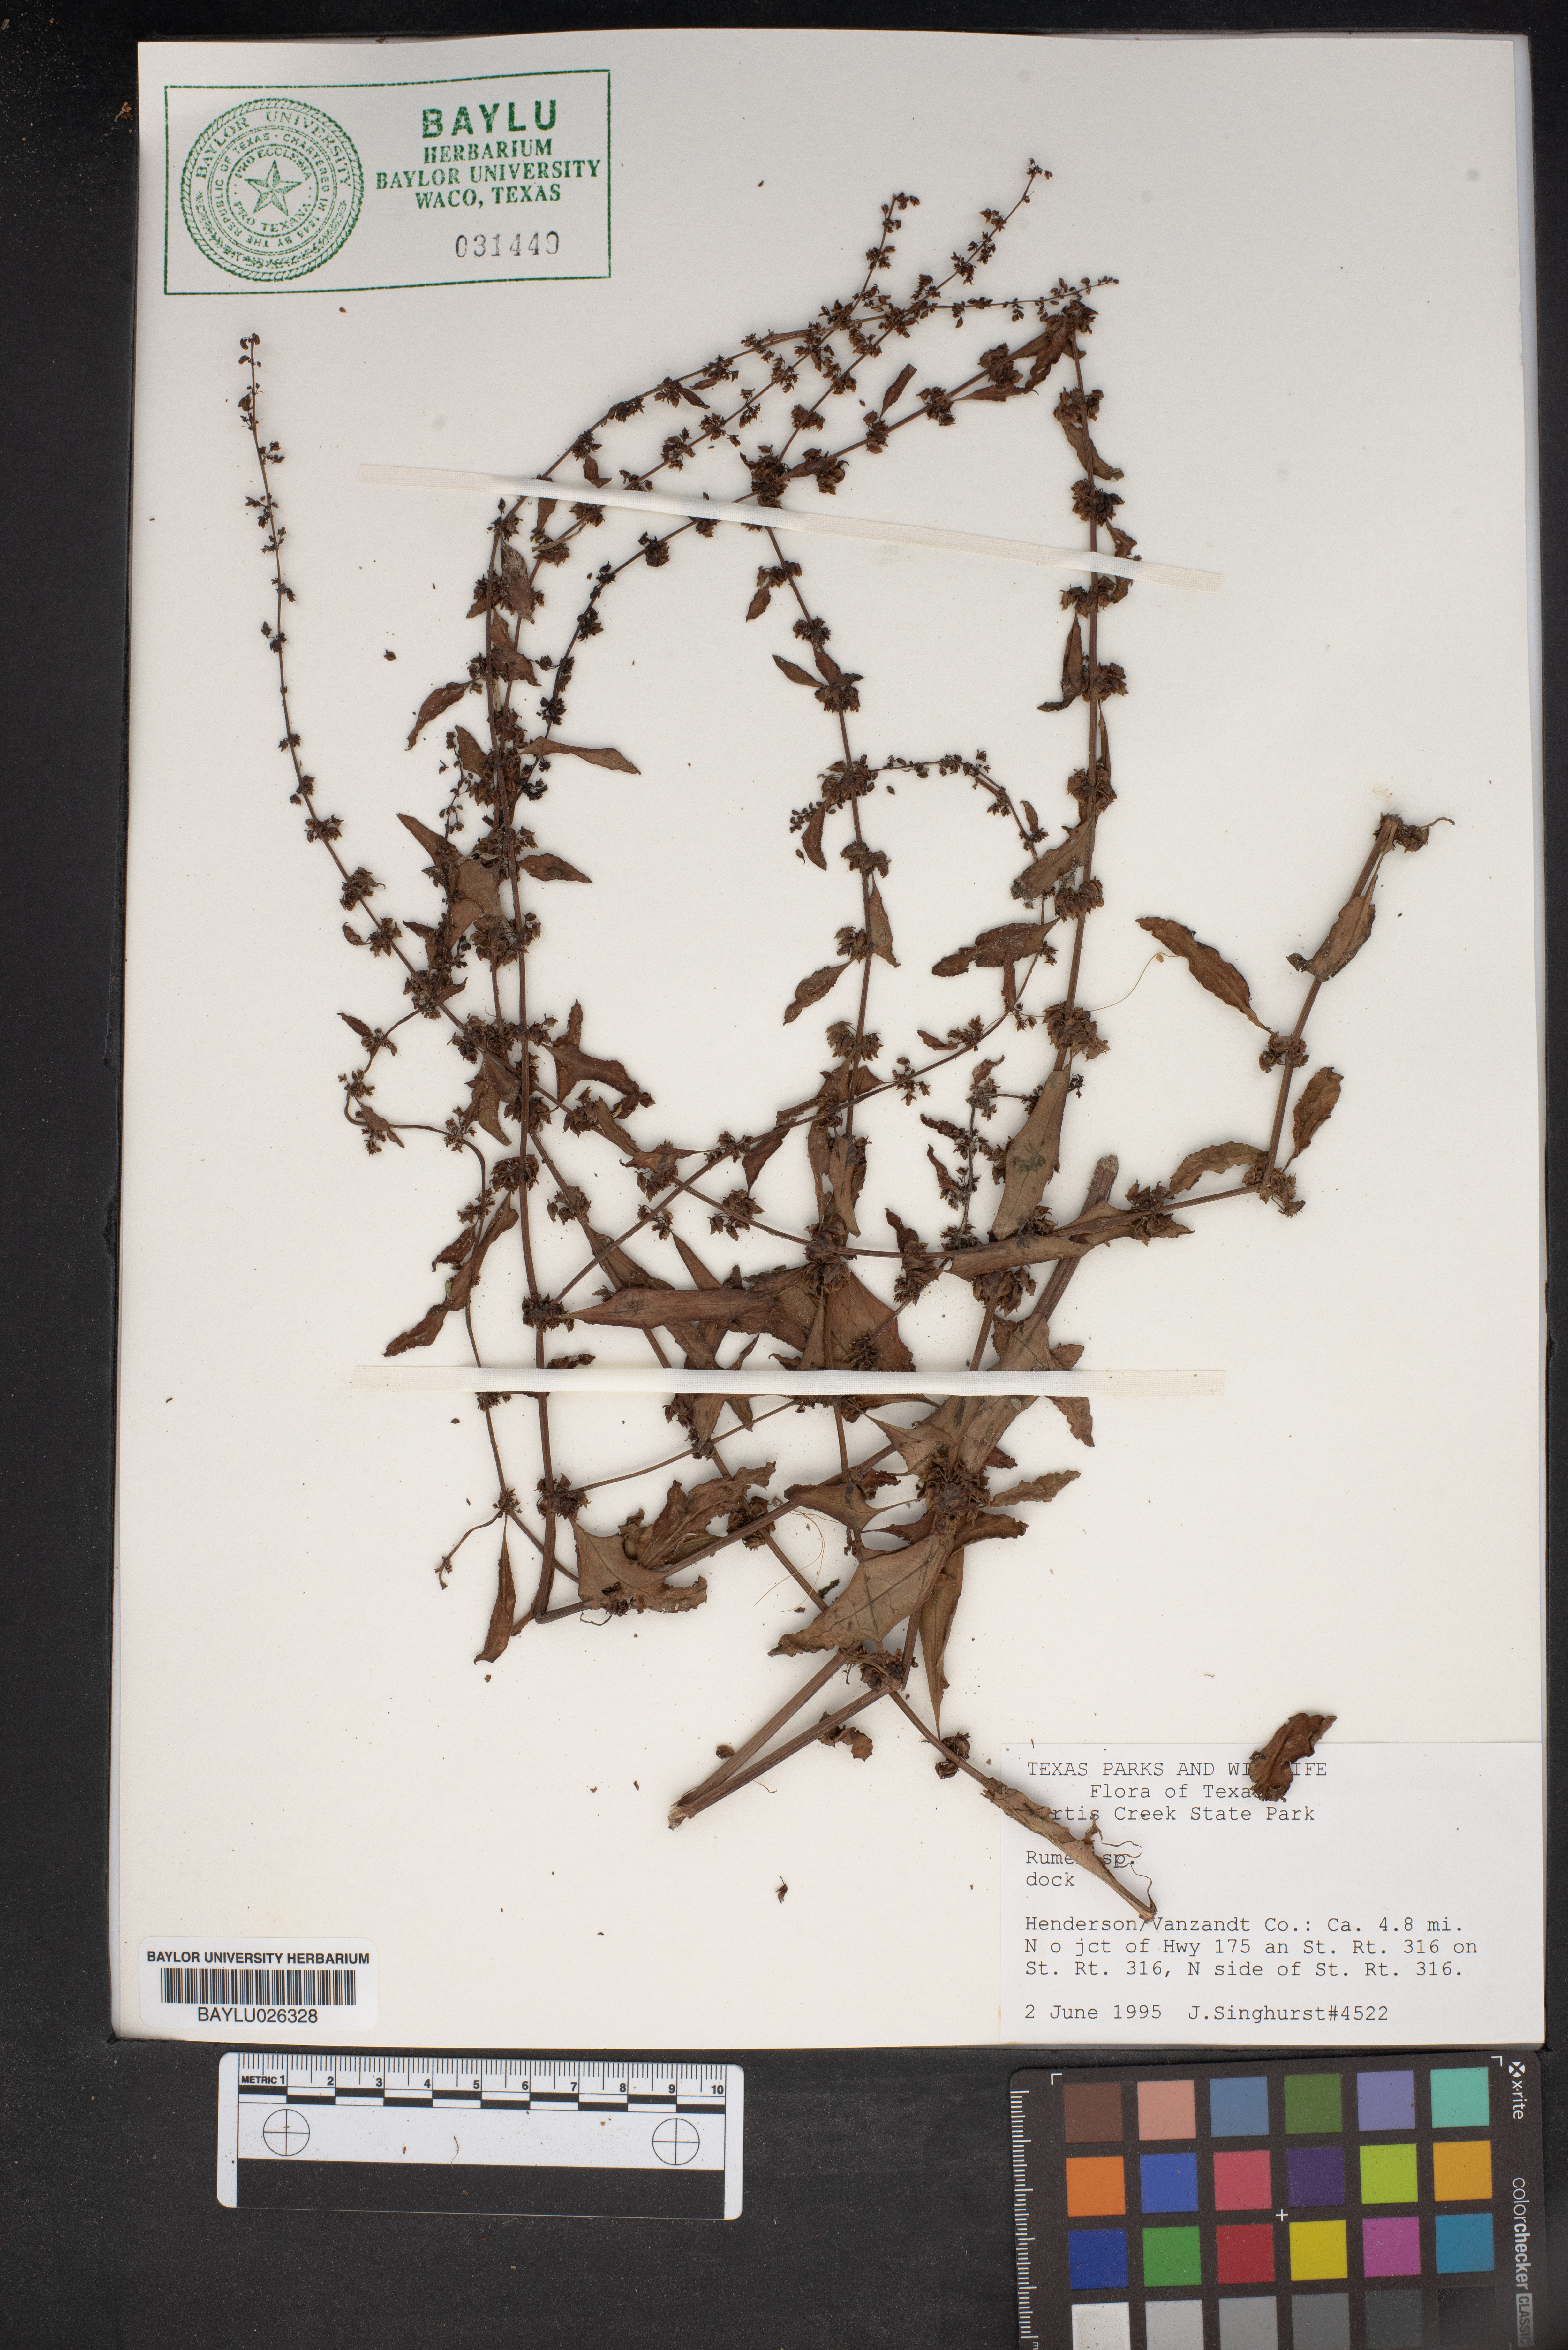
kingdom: Plantae
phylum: Tracheophyta
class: Magnoliopsida
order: Caryophyllales
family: Polygonaceae
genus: Rumex
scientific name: Rumex
